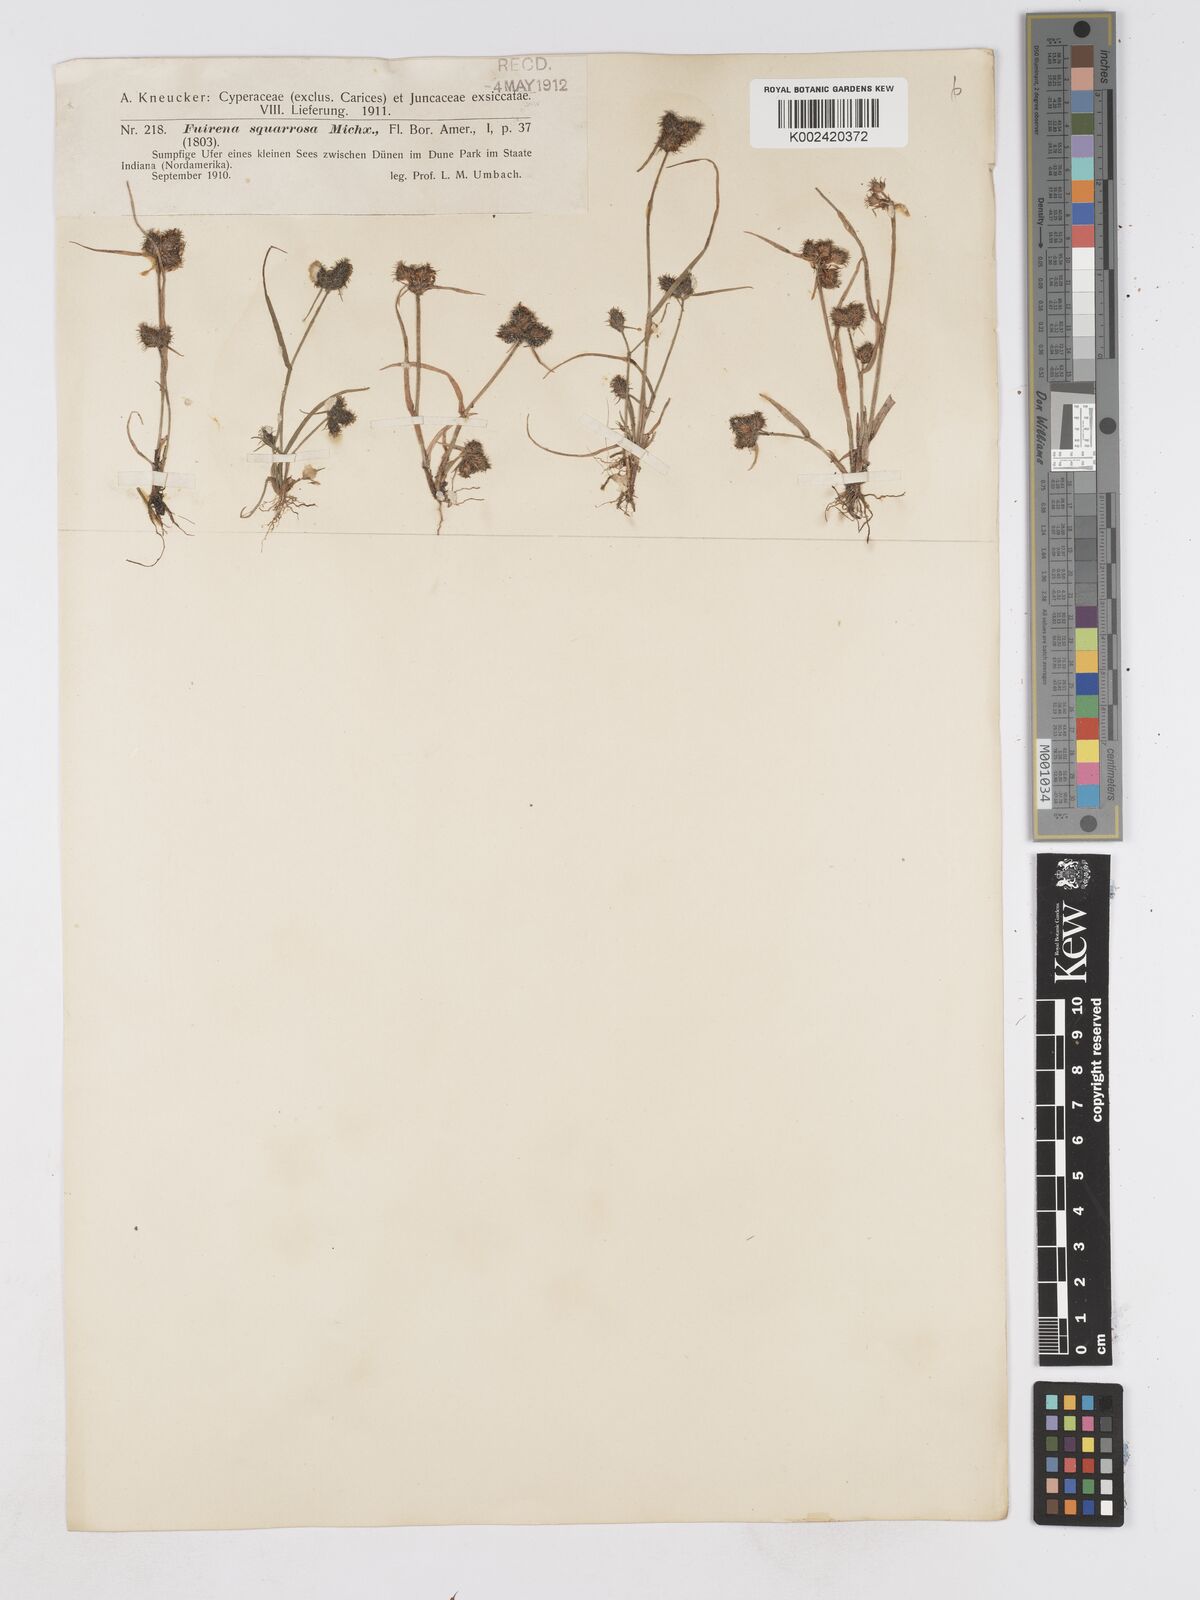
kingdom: Plantae
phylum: Tracheophyta
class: Liliopsida
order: Poales
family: Cyperaceae
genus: Fuirena
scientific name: Fuirena squarrosa
